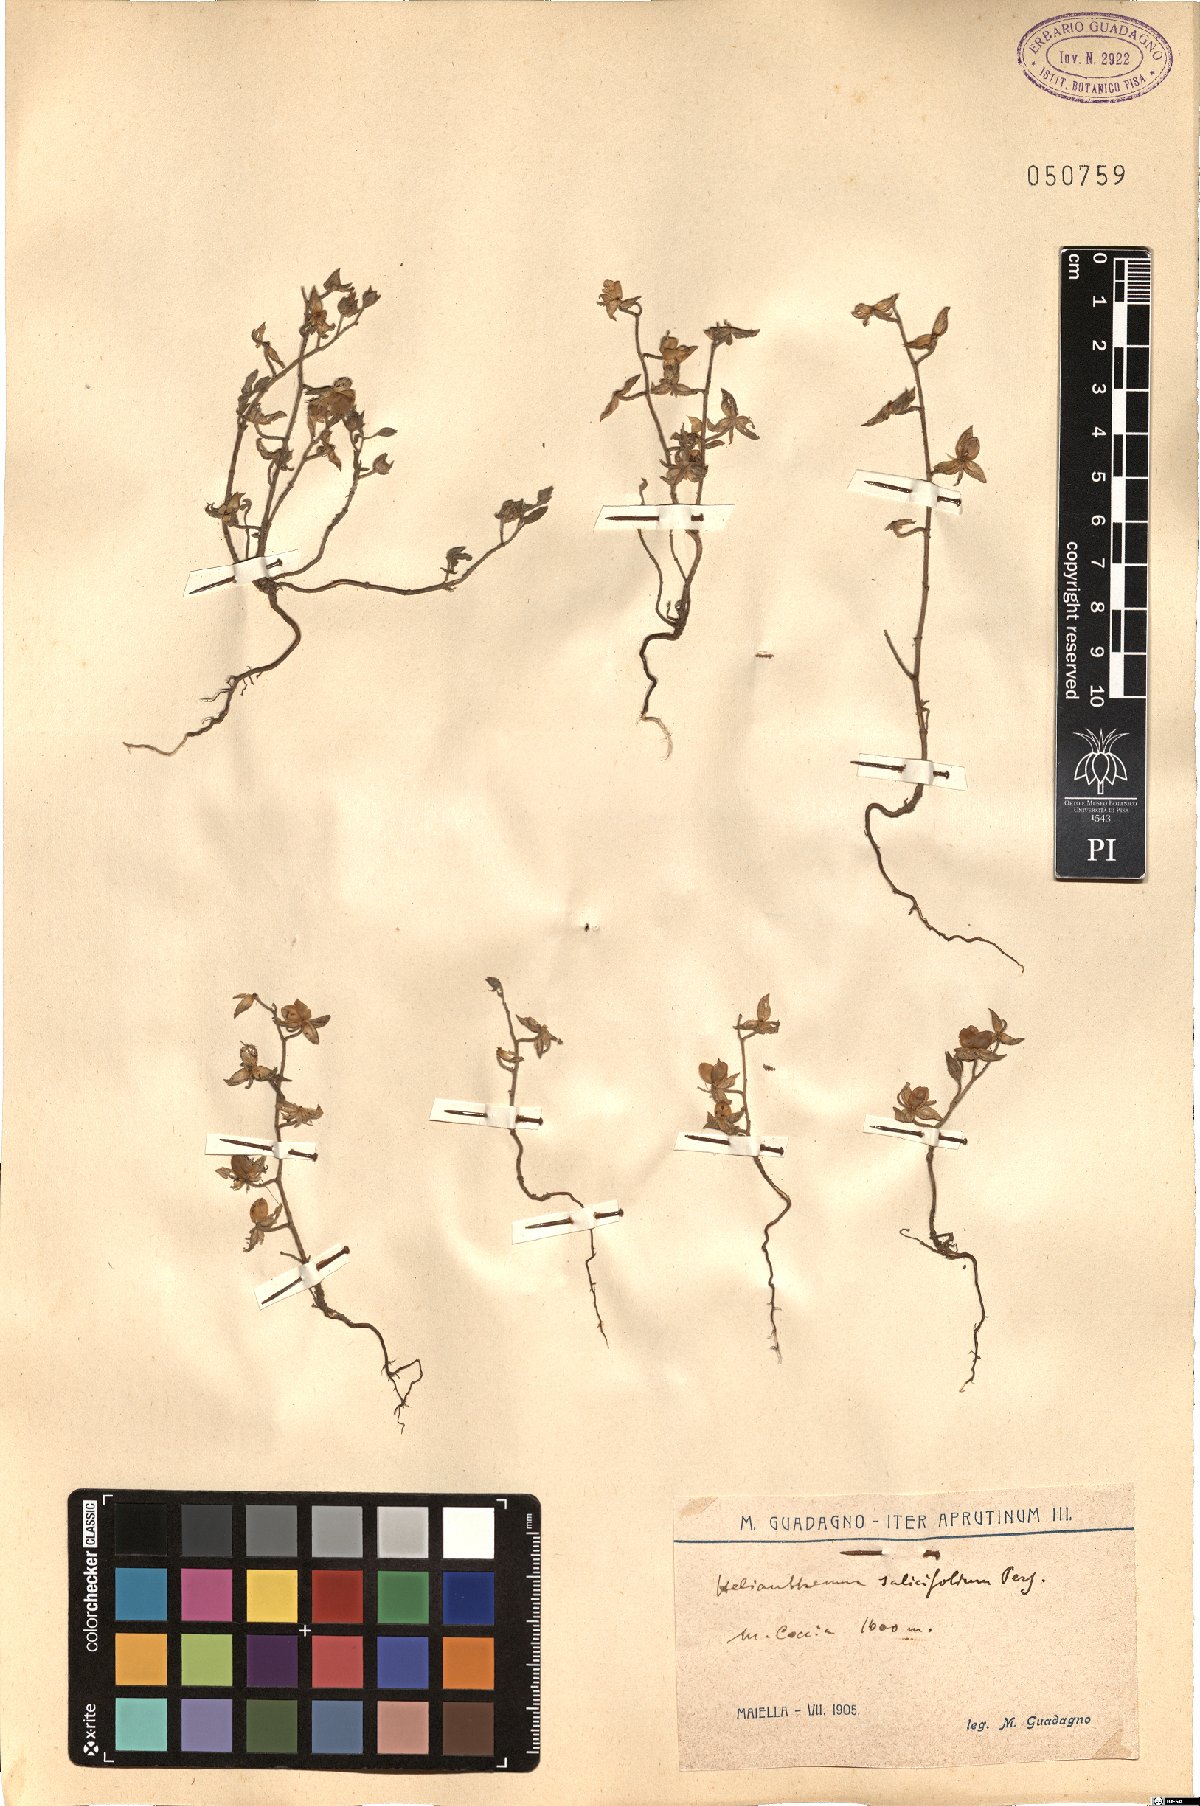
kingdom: Plantae
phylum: Tracheophyta
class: Magnoliopsida
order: Malvales
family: Cistaceae
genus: Helianthemum
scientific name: Helianthemum salicifolium
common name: Willowleaf frostweed
